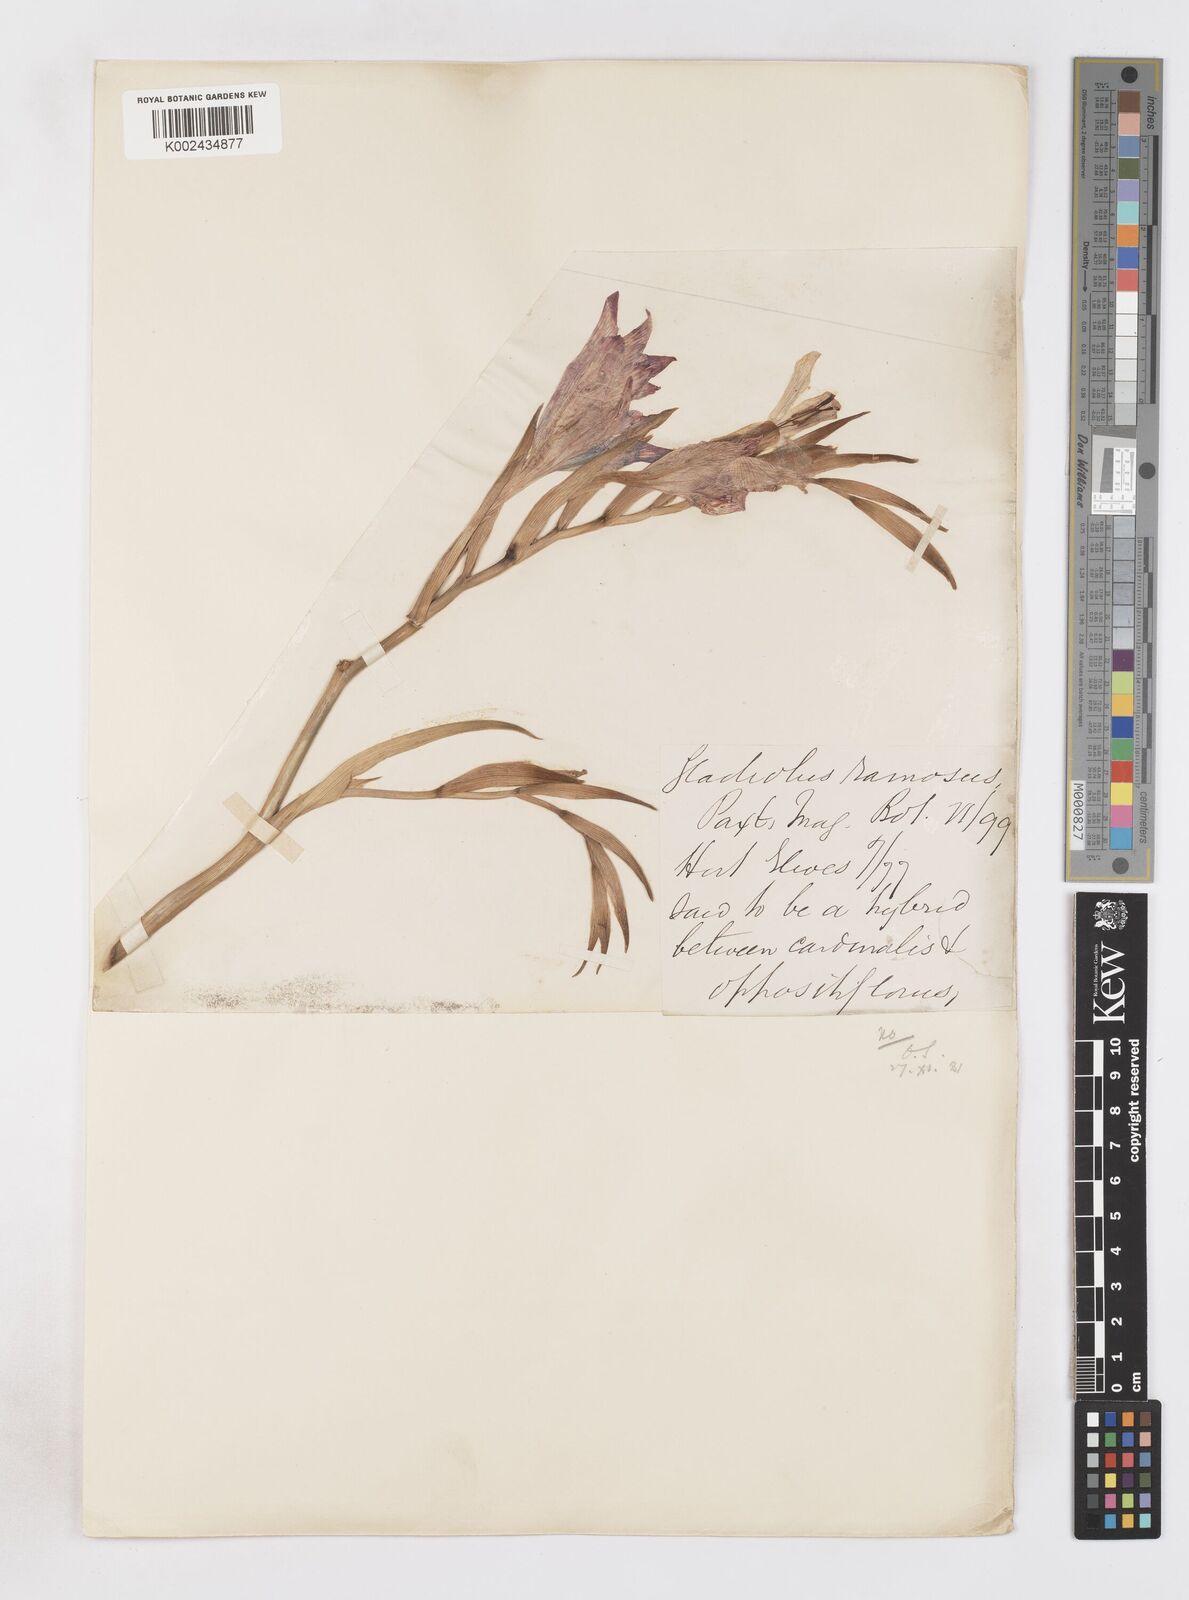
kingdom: Plantae
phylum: Tracheophyta
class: Liliopsida
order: Asparagales
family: Iridaceae
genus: Gladiolus
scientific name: Gladiolus cardinalis
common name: New year-lily
